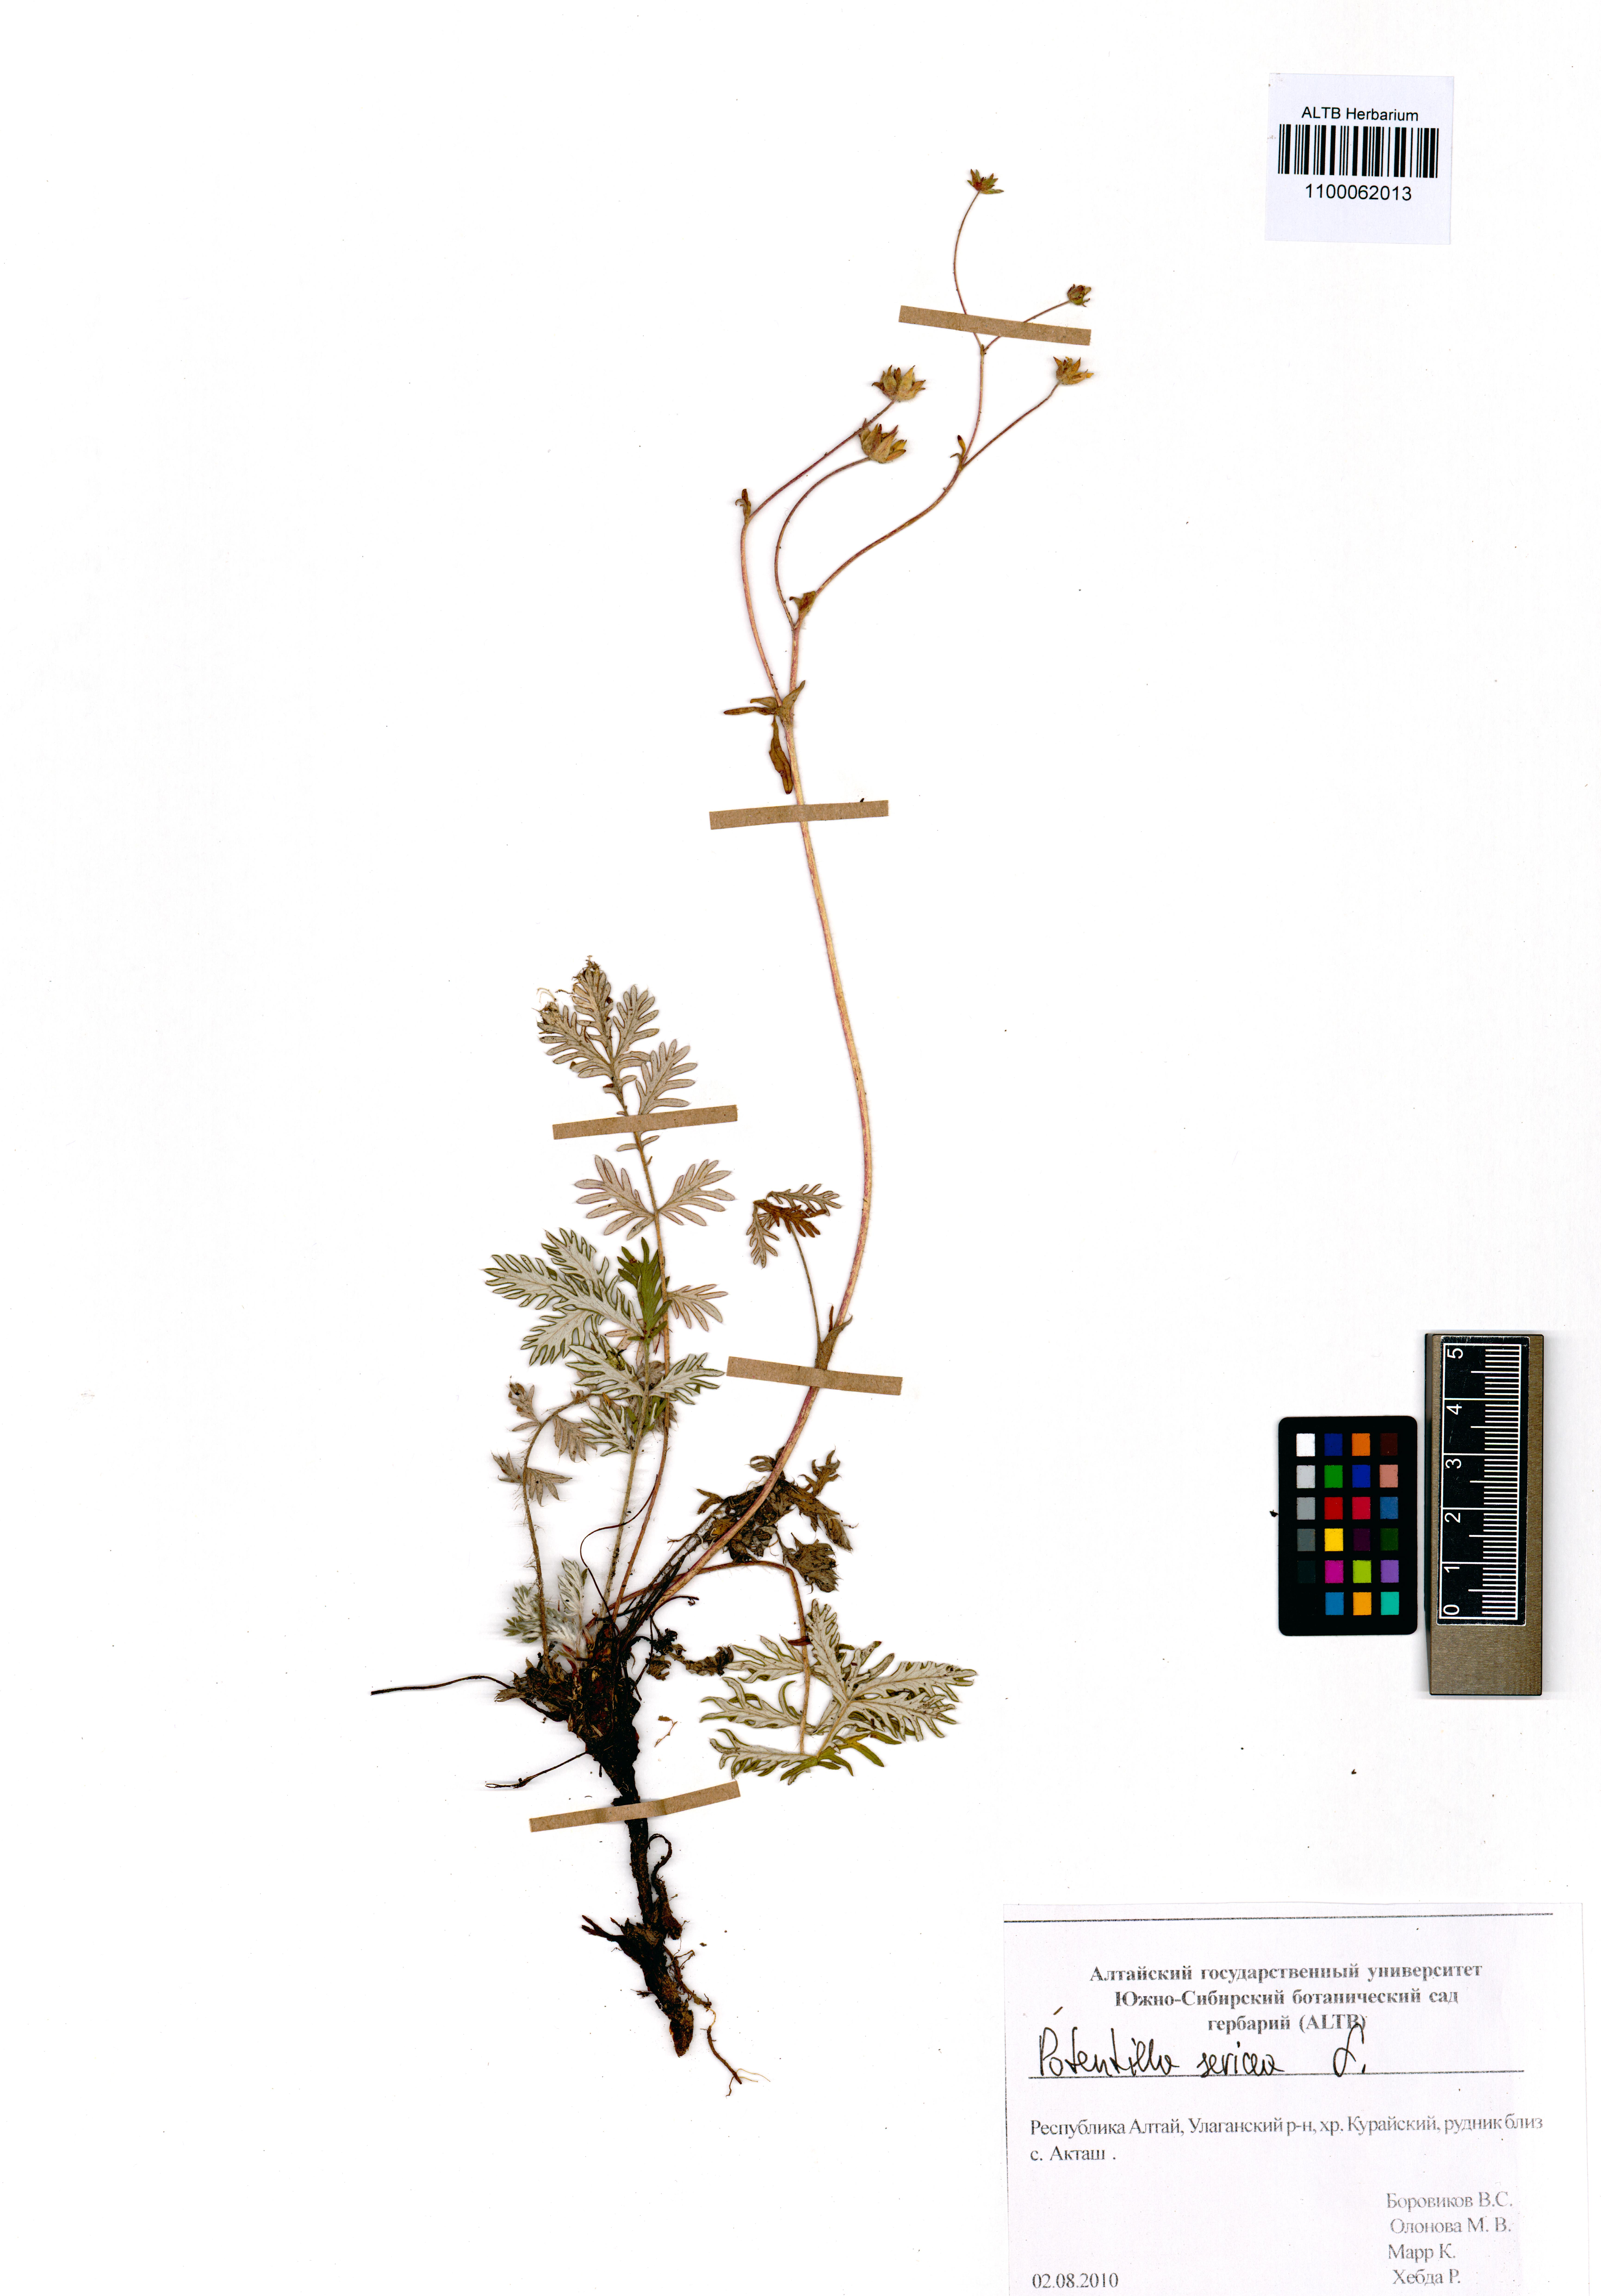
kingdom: Plantae
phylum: Tracheophyta
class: Magnoliopsida
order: Rosales
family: Rosaceae
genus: Potentilla
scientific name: Potentilla sericea
